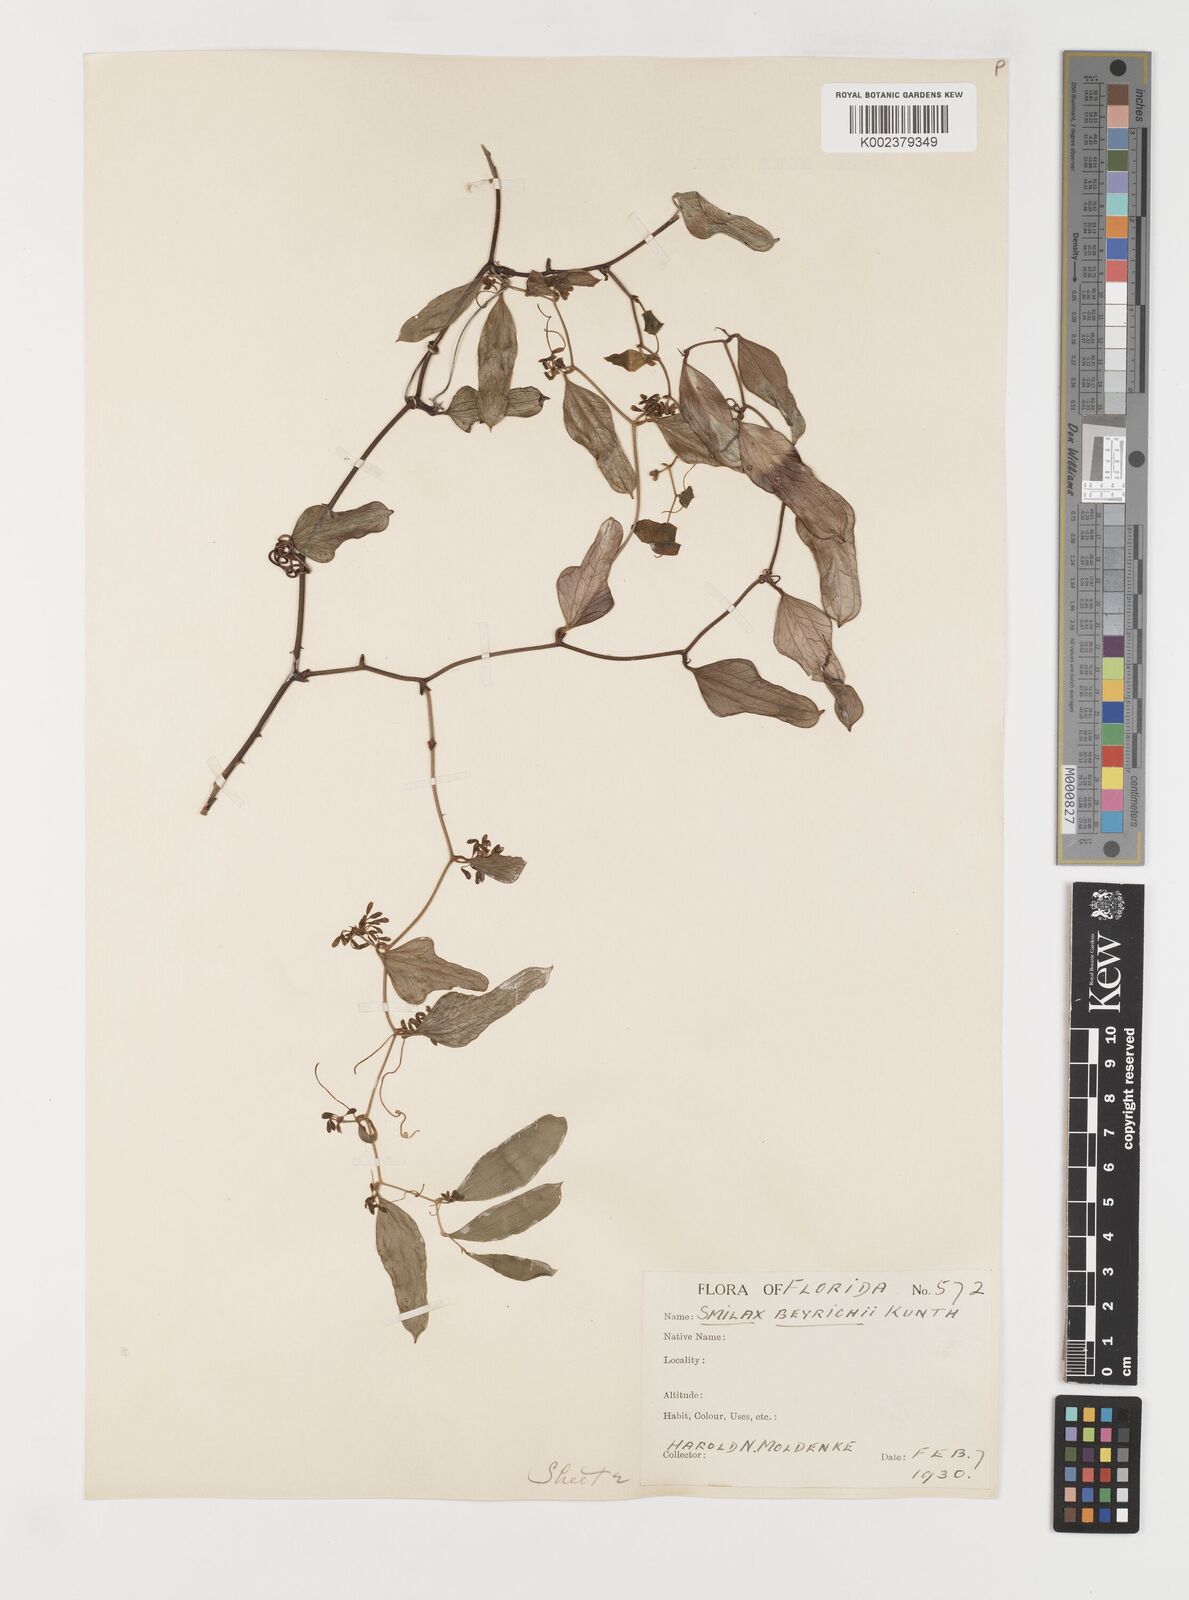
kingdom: Plantae
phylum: Tracheophyta
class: Liliopsida
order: Liliales
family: Smilacaceae
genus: Smilax
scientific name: Smilax auriculata
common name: Wild bamboo
